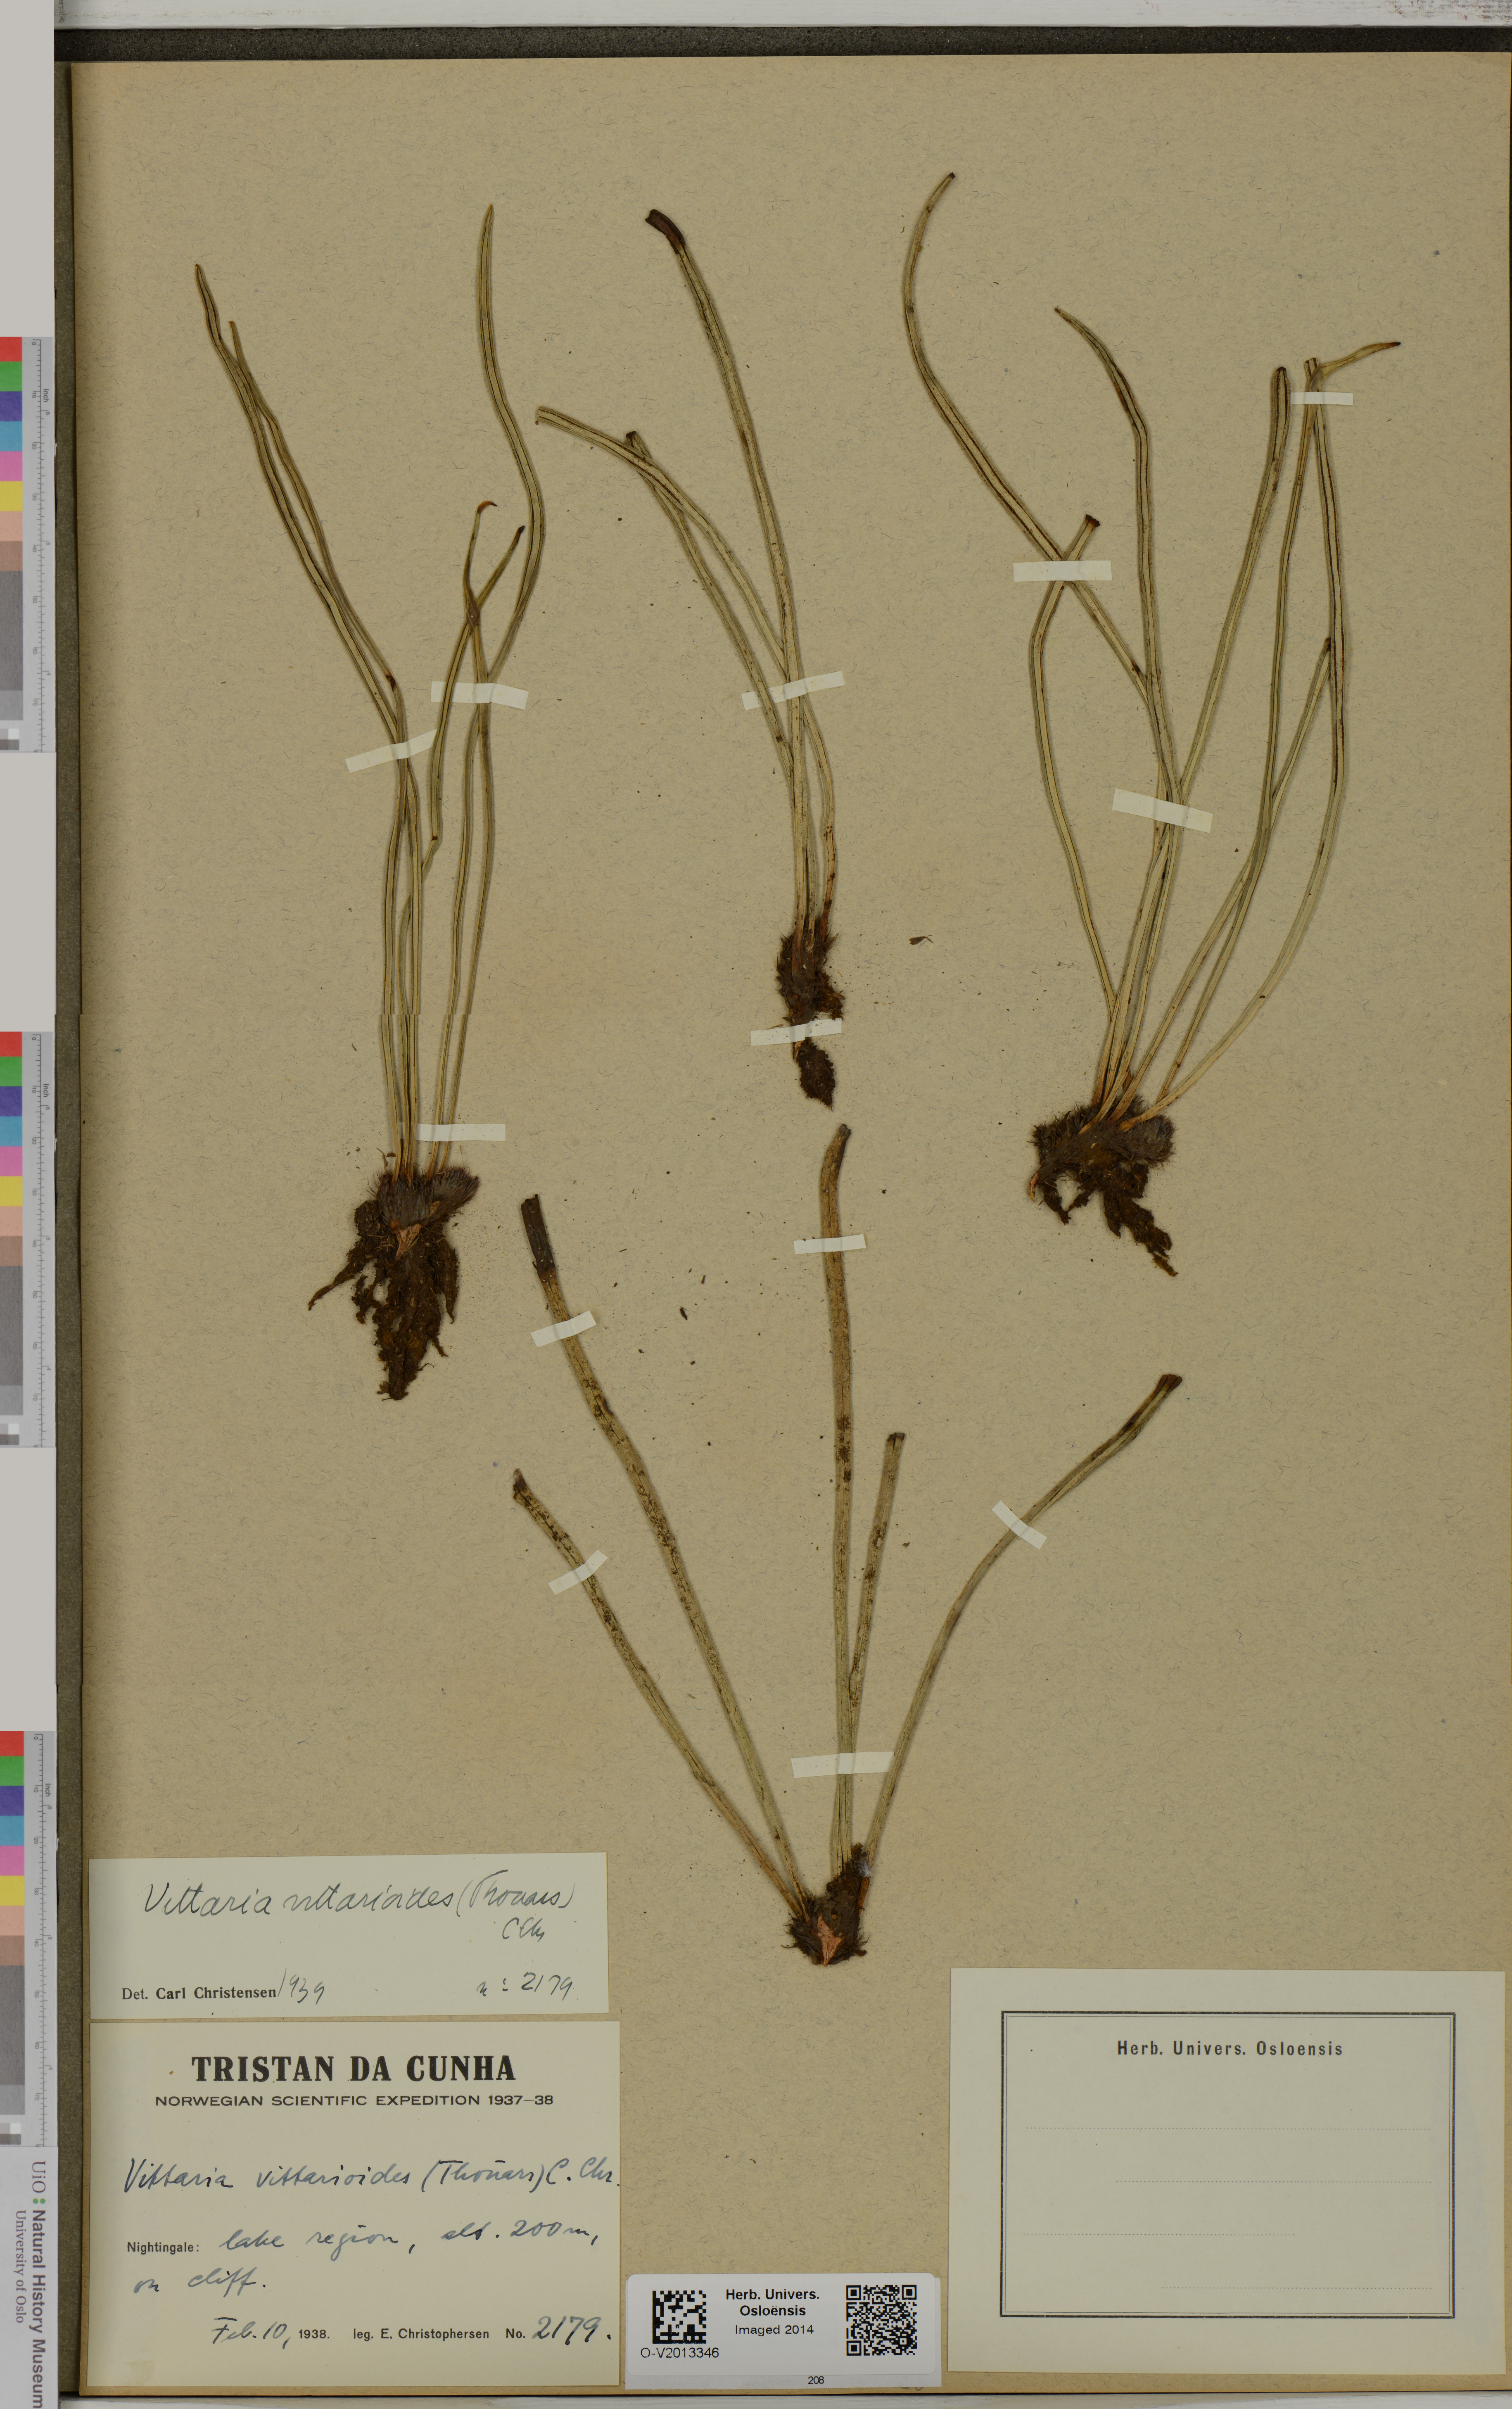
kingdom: Plantae
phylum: Tracheophyta
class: Polypodiopsida
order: Polypodiales
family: Pteridaceae
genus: Haplopteris
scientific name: Haplopteris vittarioides
